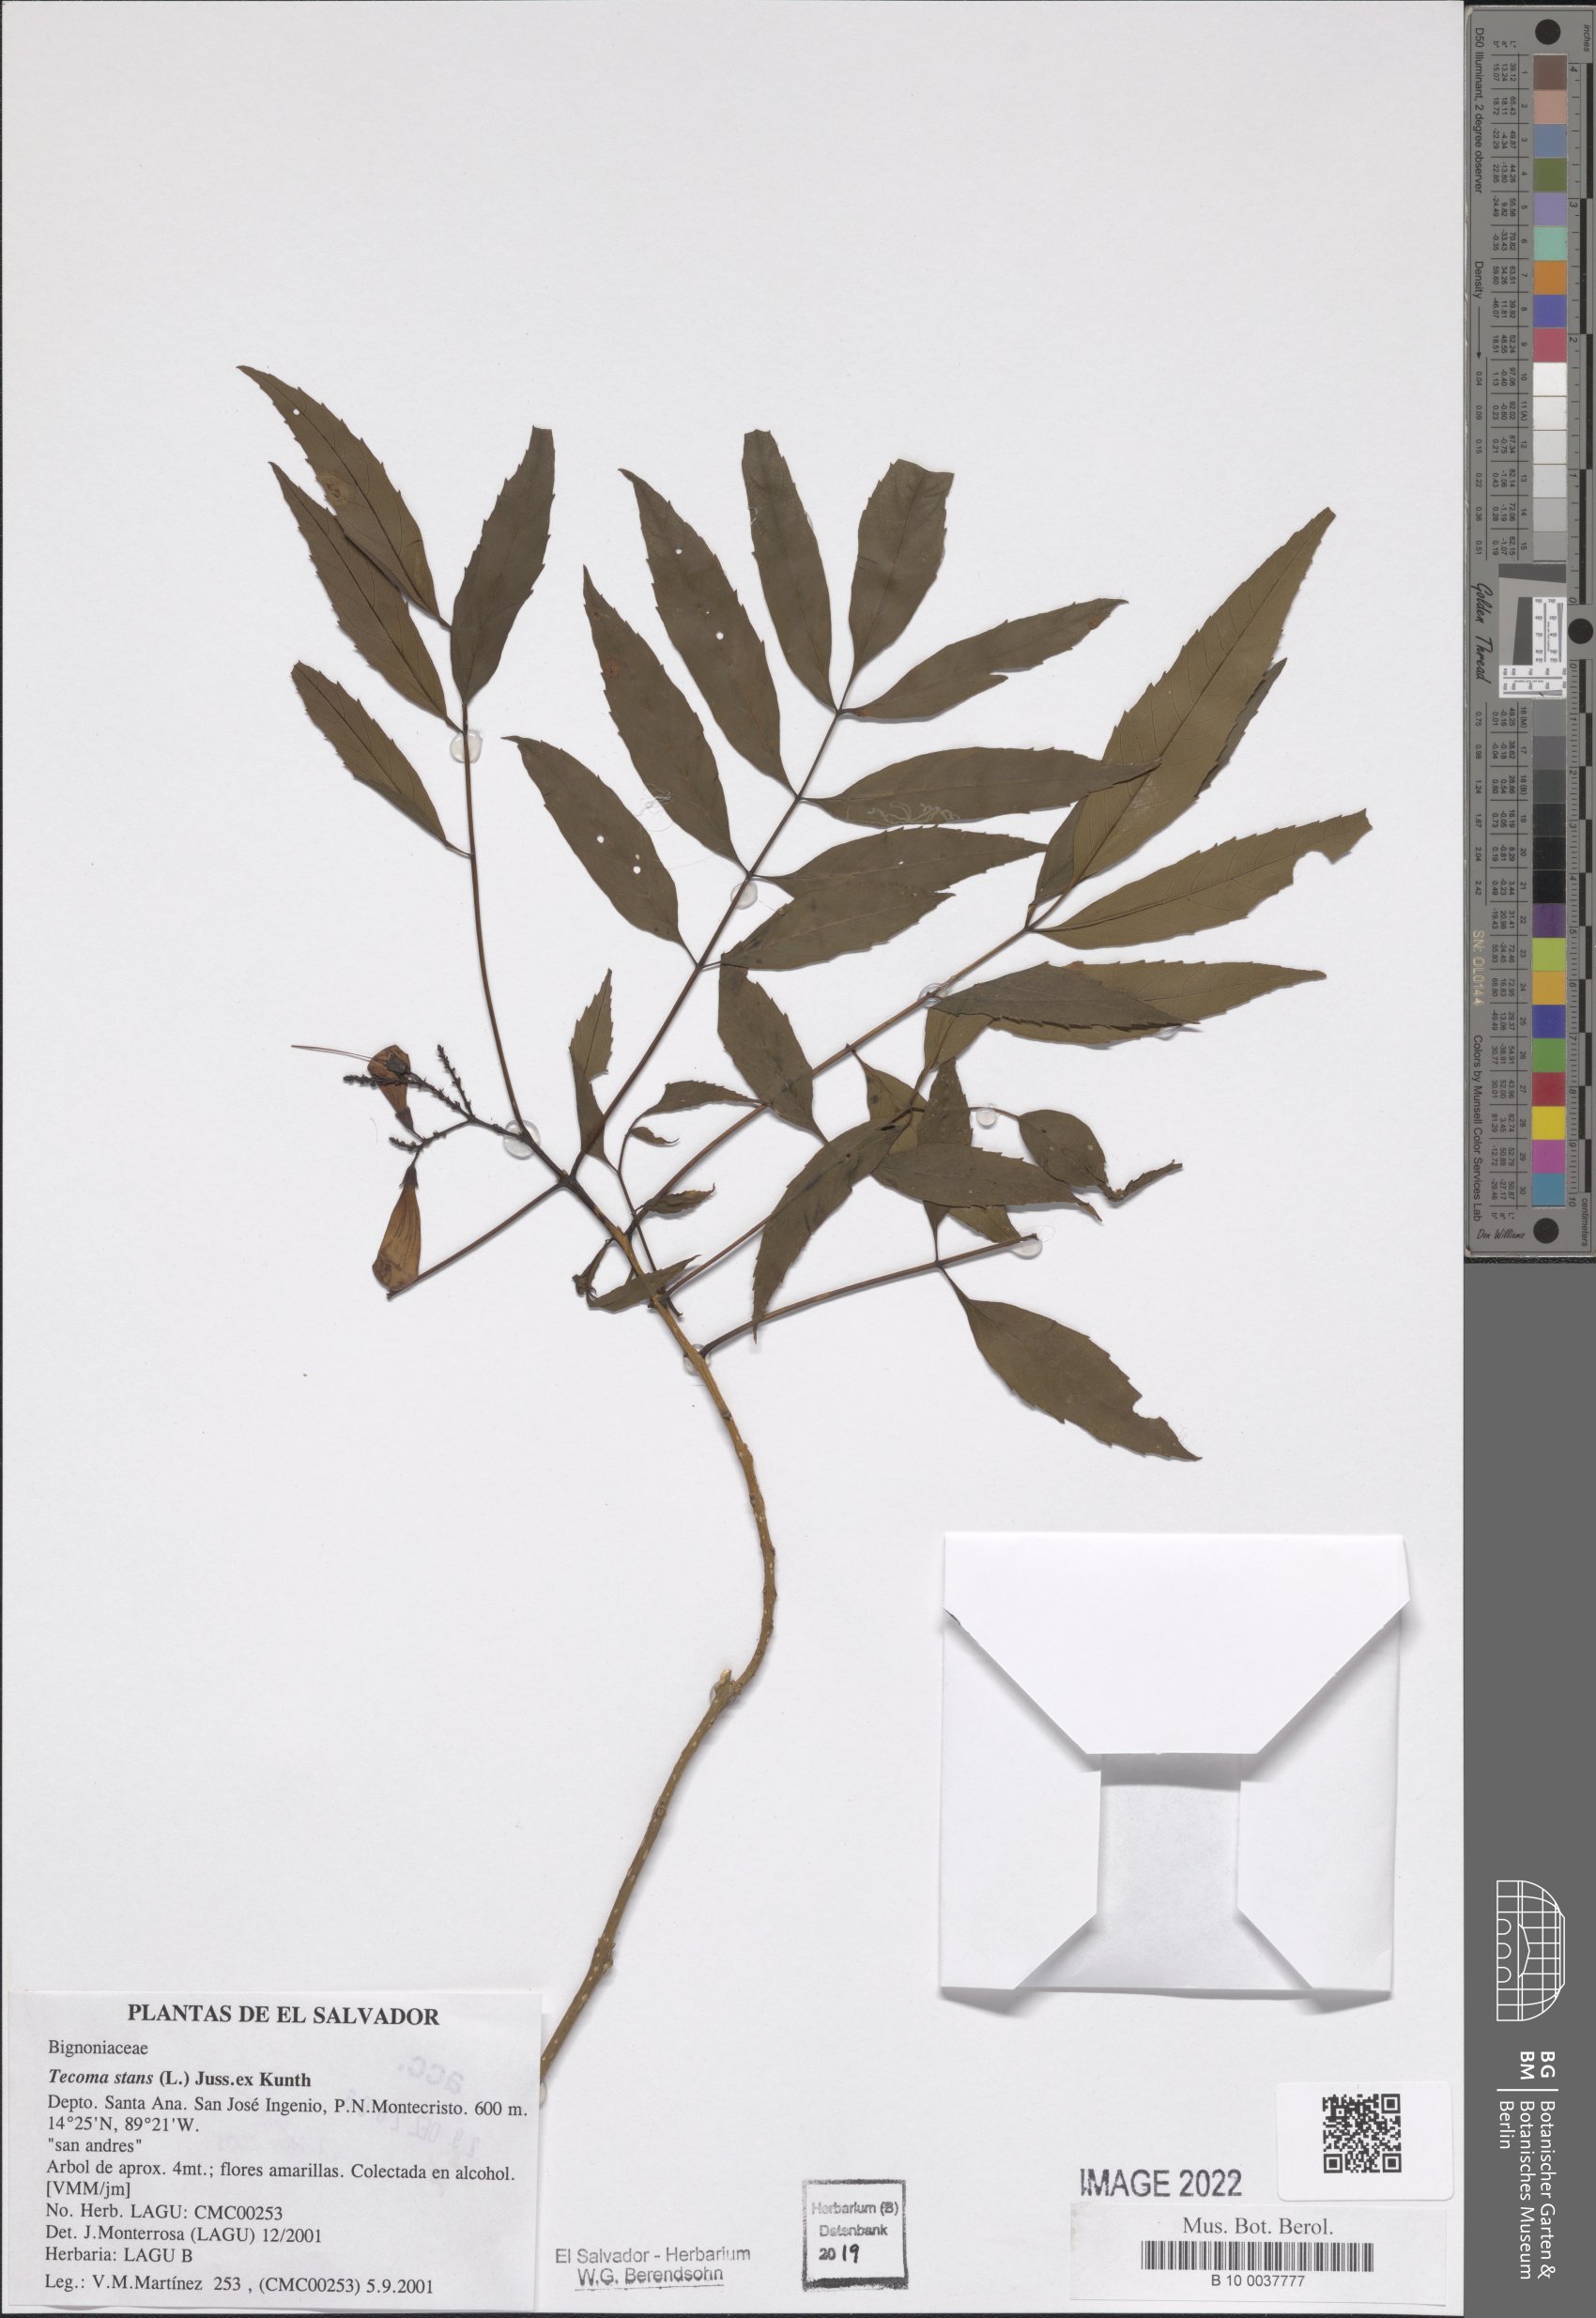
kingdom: Plantae
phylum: Tracheophyta
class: Magnoliopsida
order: Lamiales
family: Bignoniaceae
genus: Tecoma
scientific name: Tecoma stans
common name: Yellow trumpetbush
